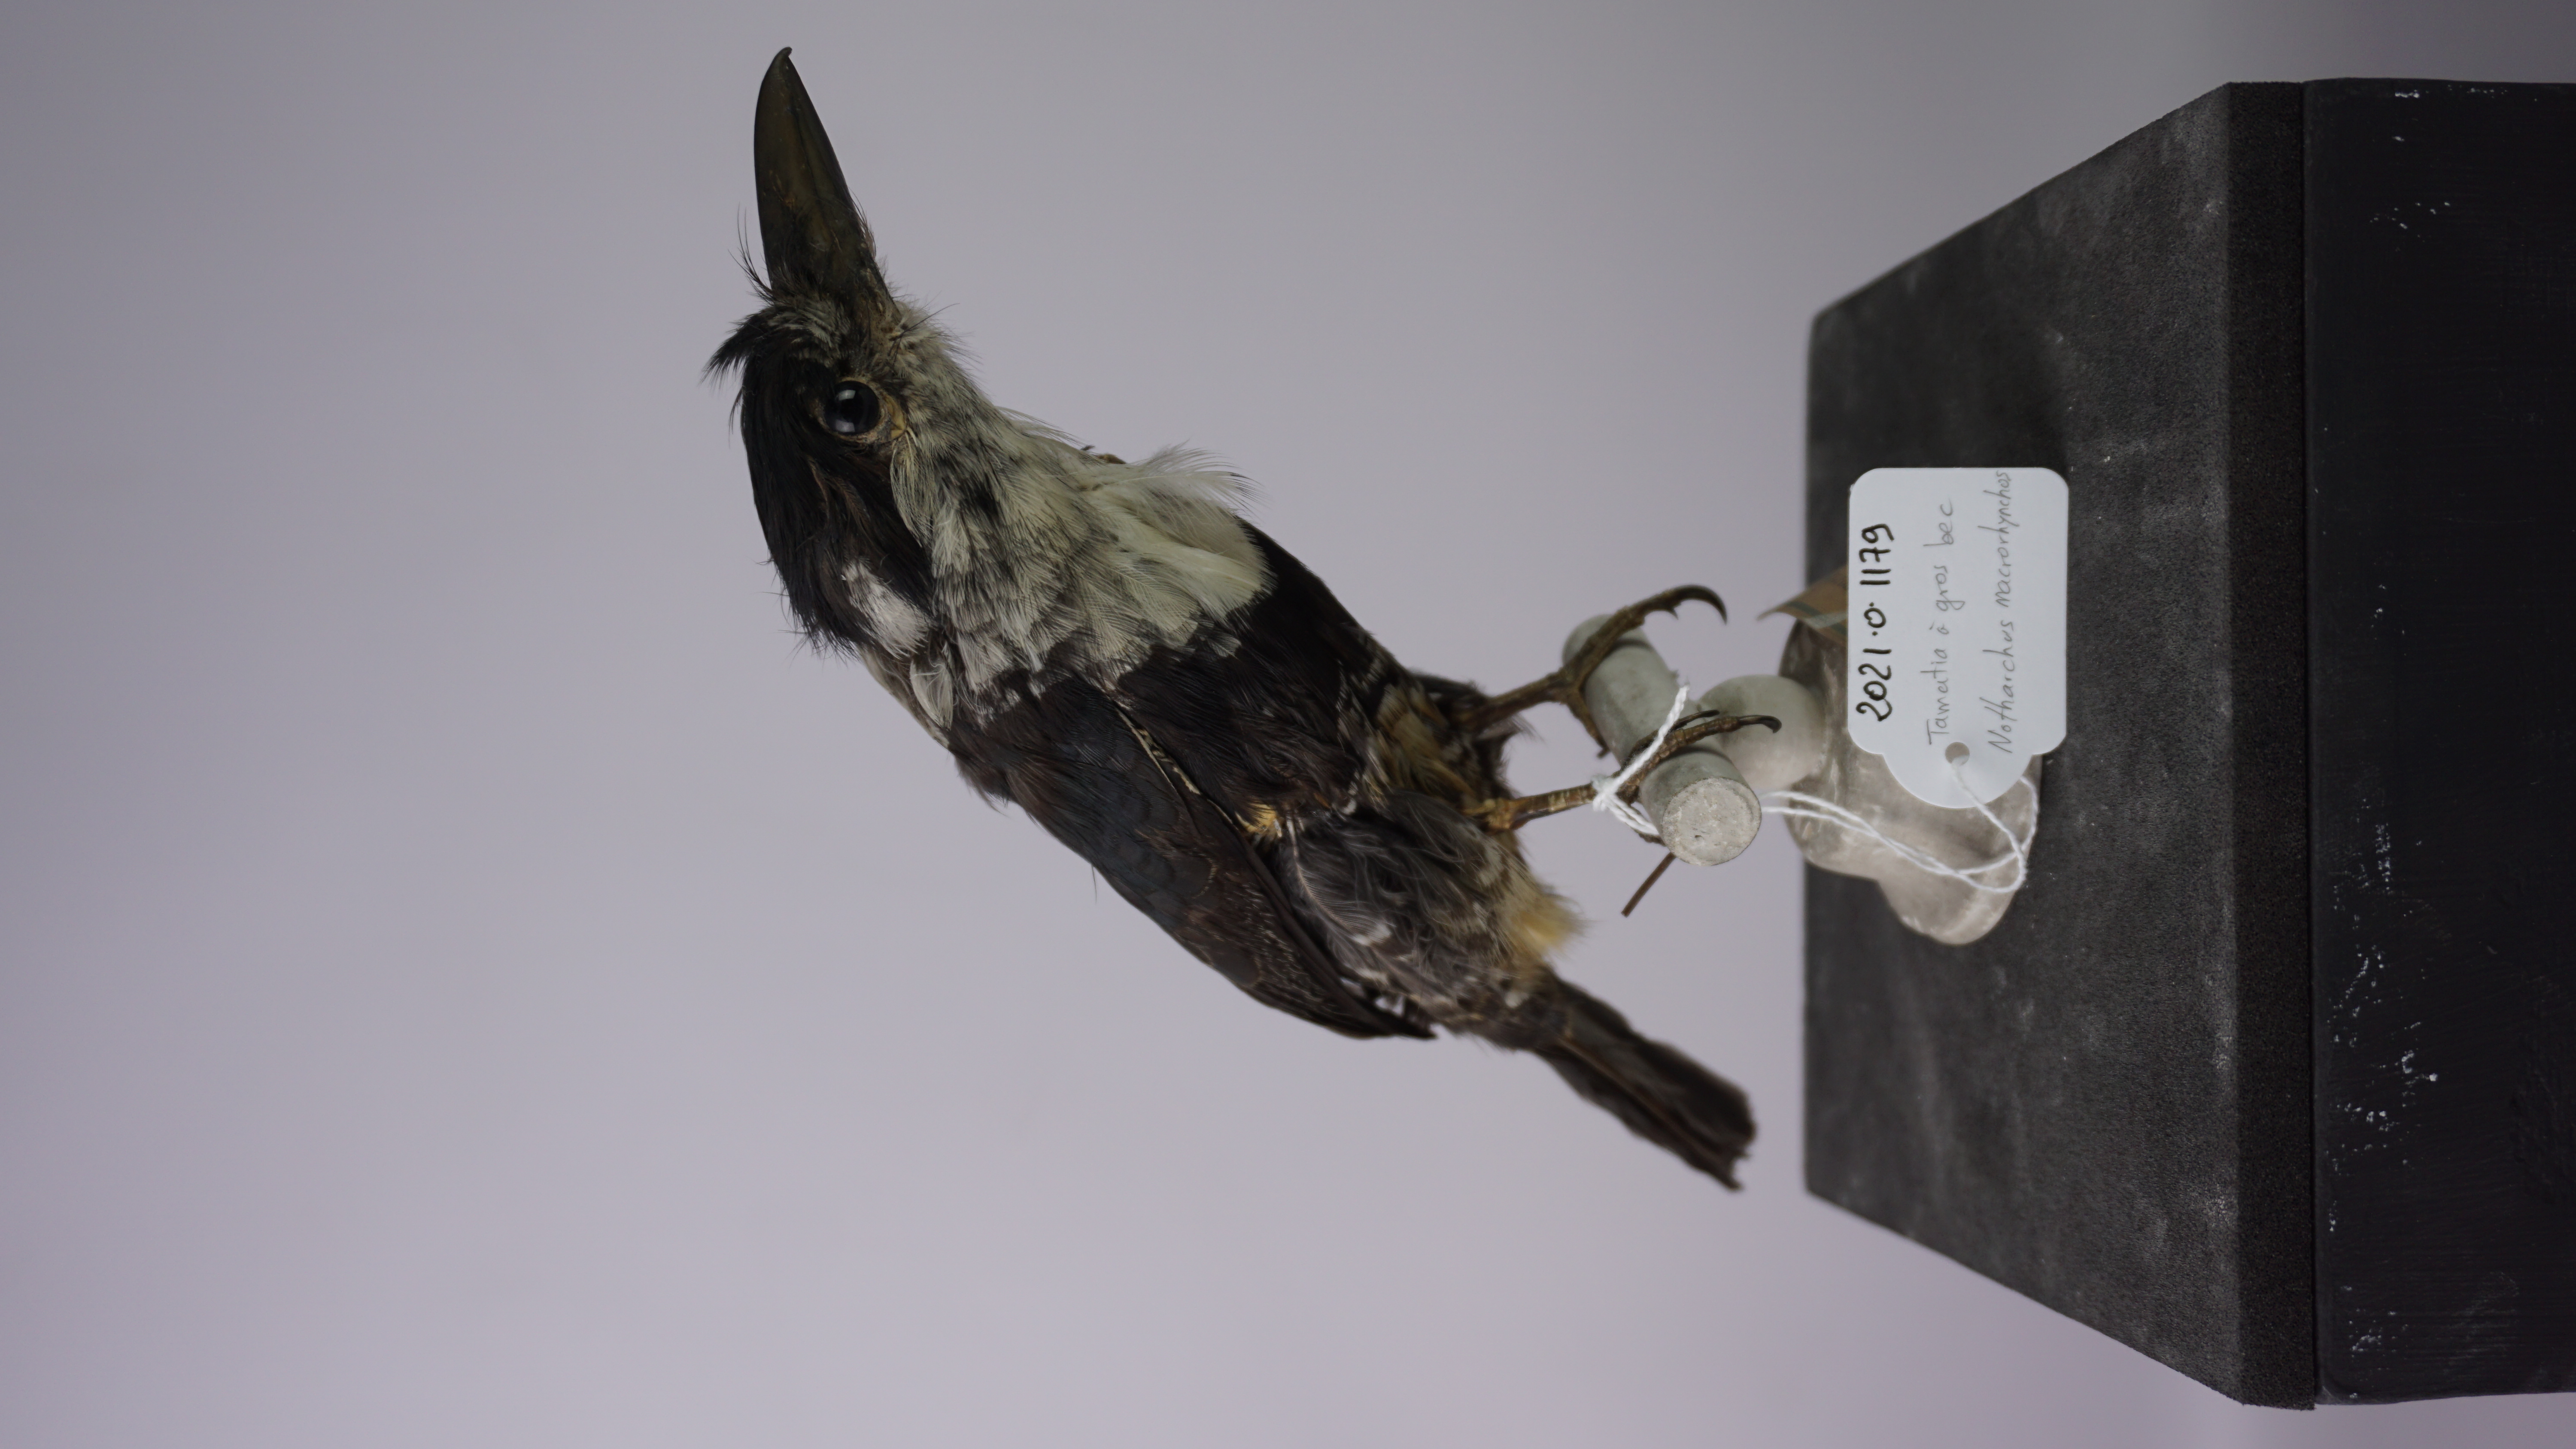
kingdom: Animalia
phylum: Chordata
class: Aves
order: Piciformes
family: Bucconidae
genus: Notharchus
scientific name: Notharchus macrorhynchos
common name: Guianan puffbird
